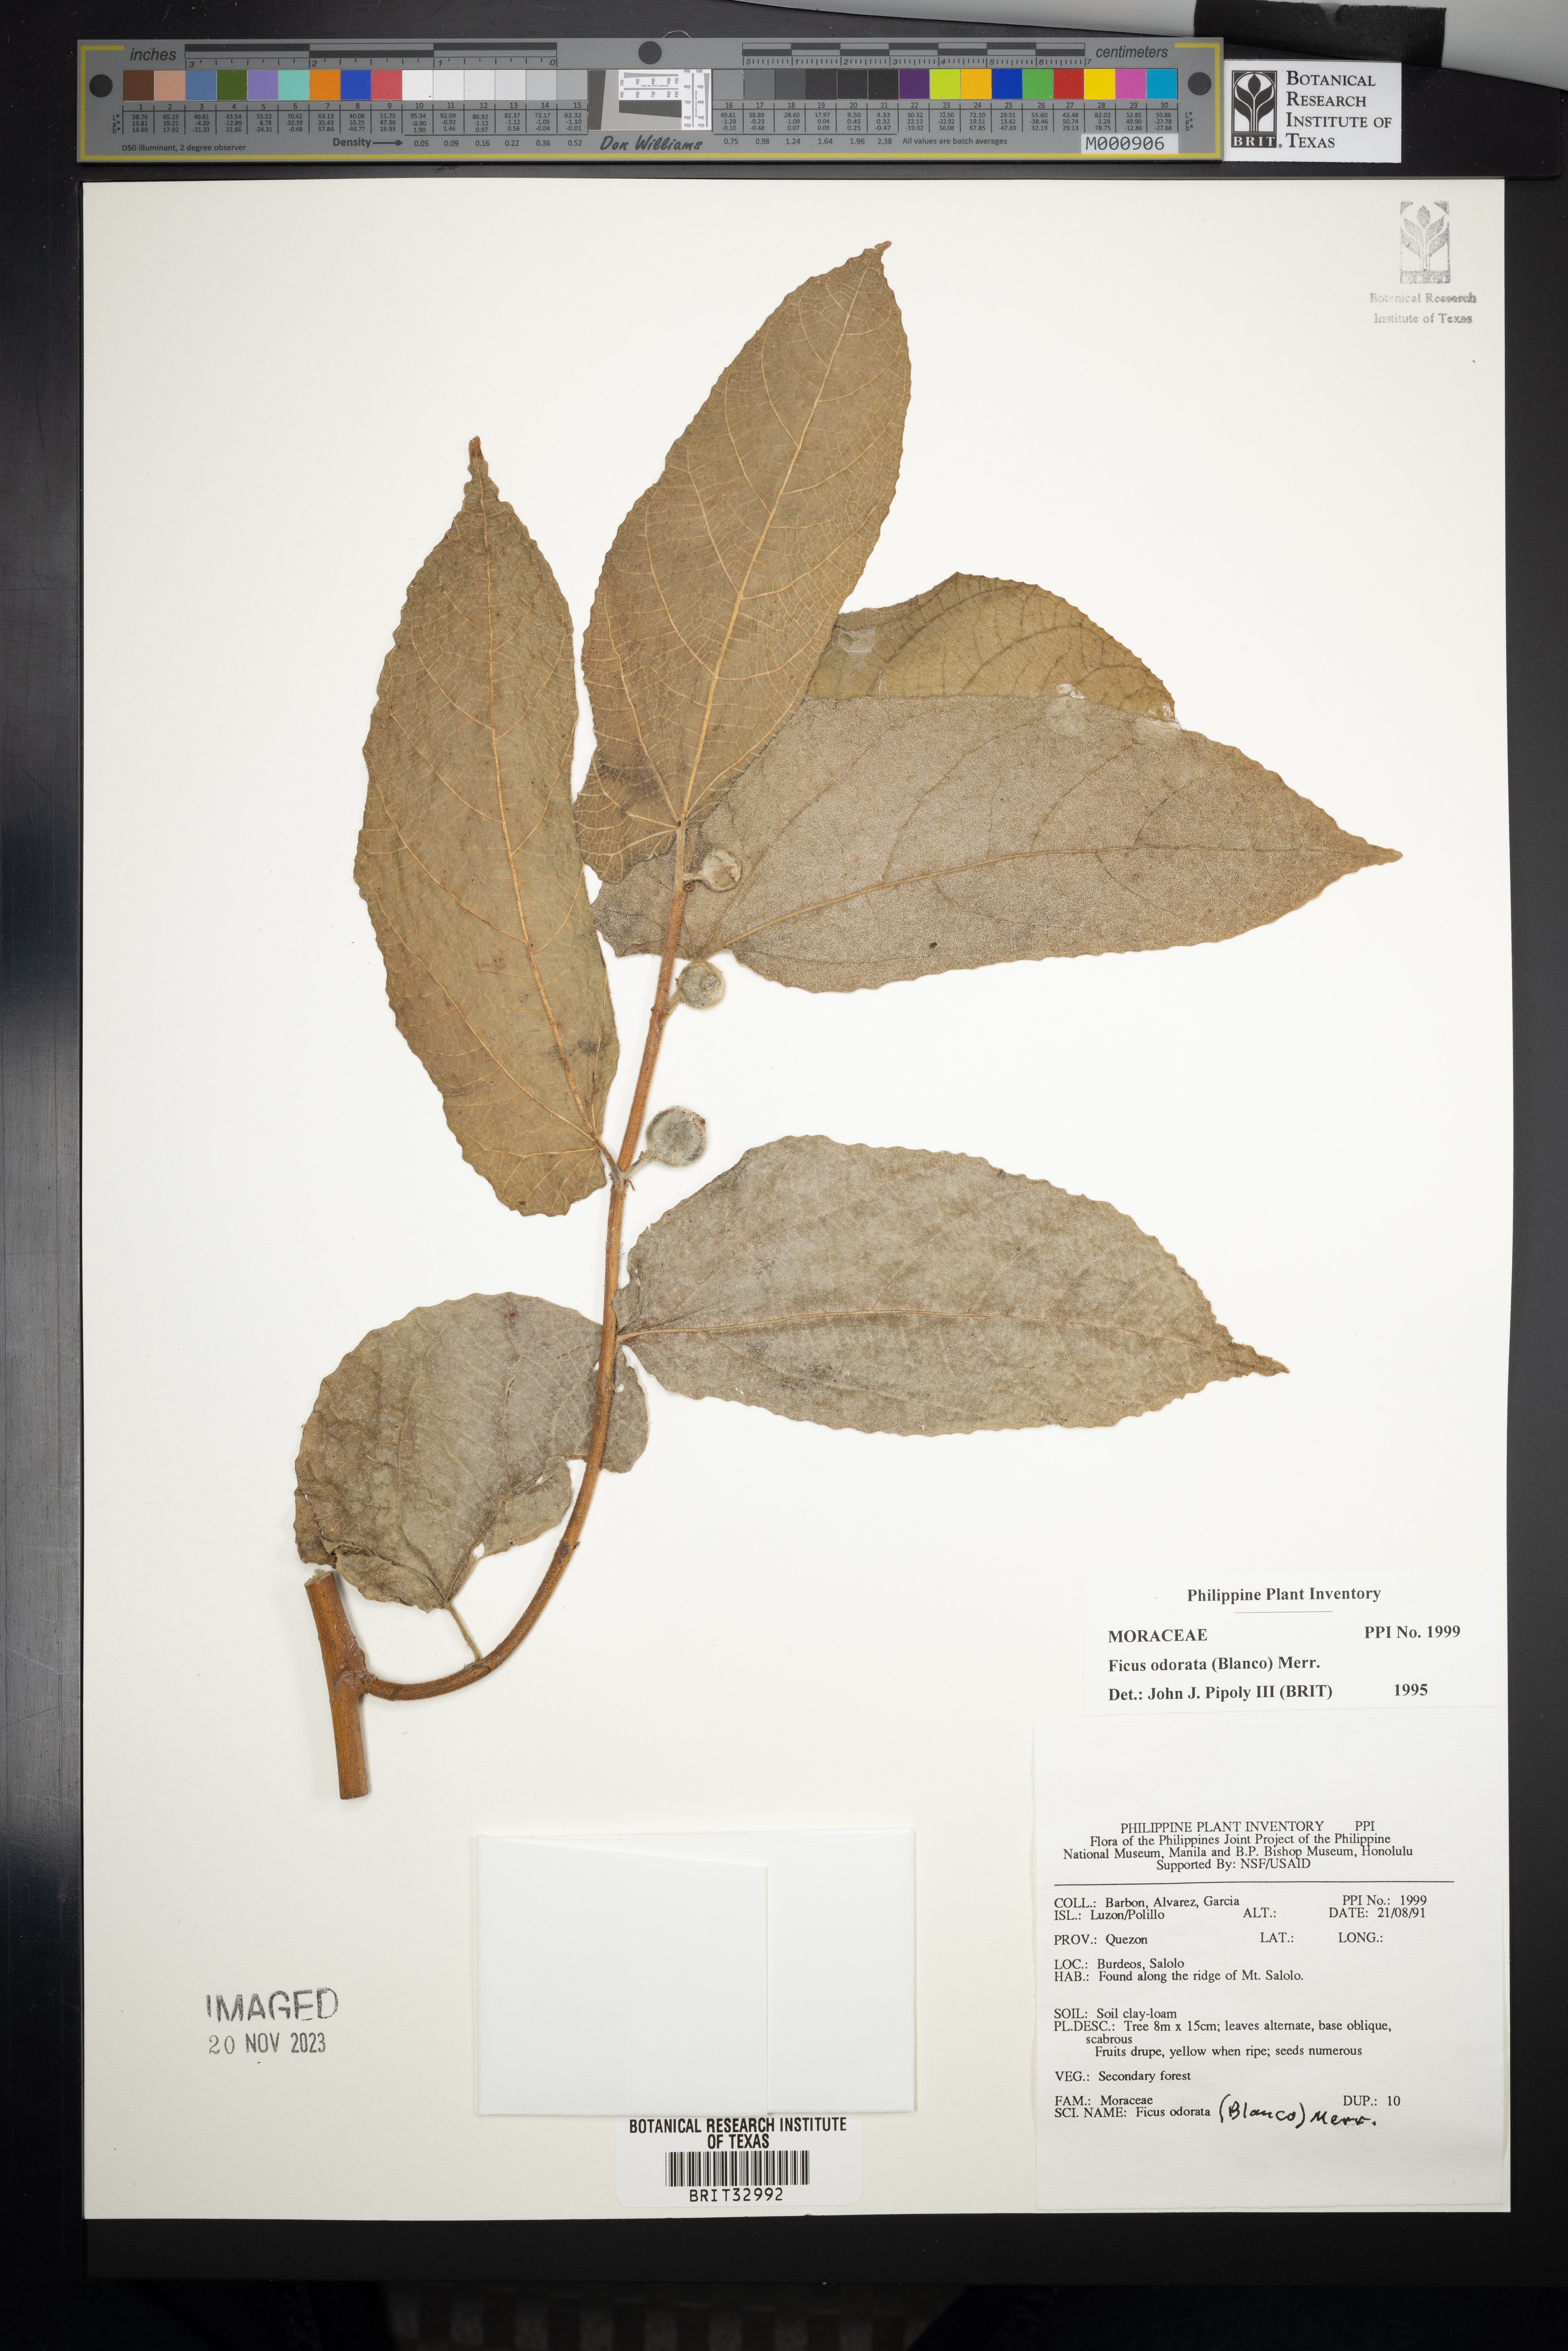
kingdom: Plantae
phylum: Tracheophyta
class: Magnoliopsida
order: Rosales
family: Moraceae
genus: Ficus
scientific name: Ficus odorata
